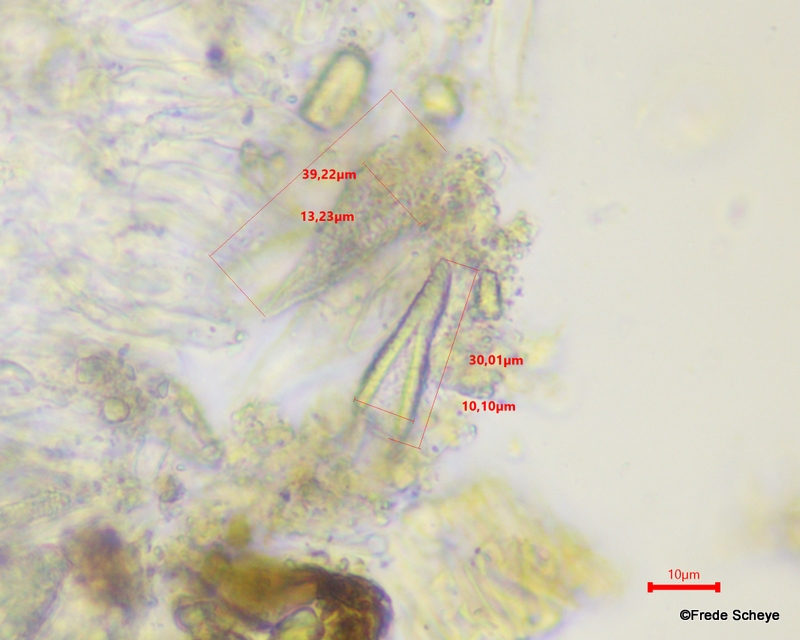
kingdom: Fungi
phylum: Basidiomycota
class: Agaricomycetes
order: Russulales
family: Peniophoraceae
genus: Peniophora
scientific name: Peniophora quercina
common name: ege-voksskind
